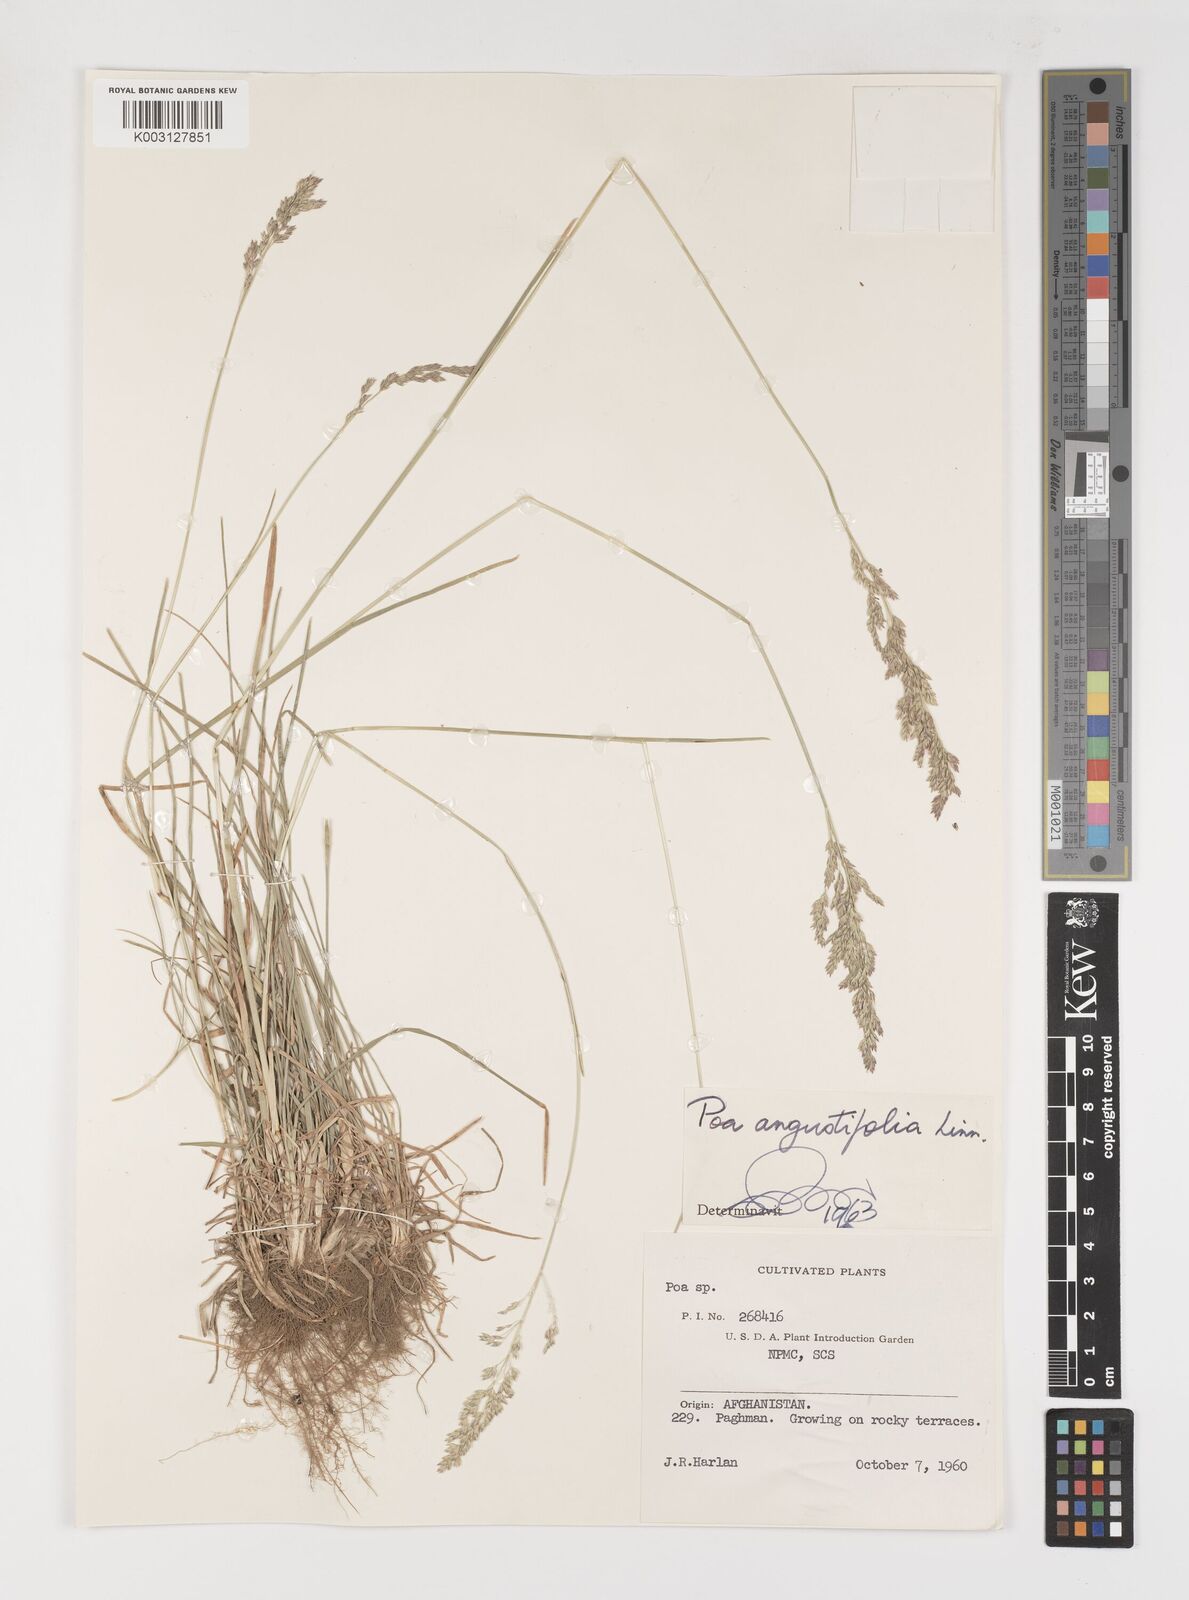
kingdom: Plantae
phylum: Tracheophyta
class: Liliopsida
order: Poales
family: Poaceae
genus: Poa
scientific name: Poa angustifolia
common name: Narrow-leaved meadow-grass
